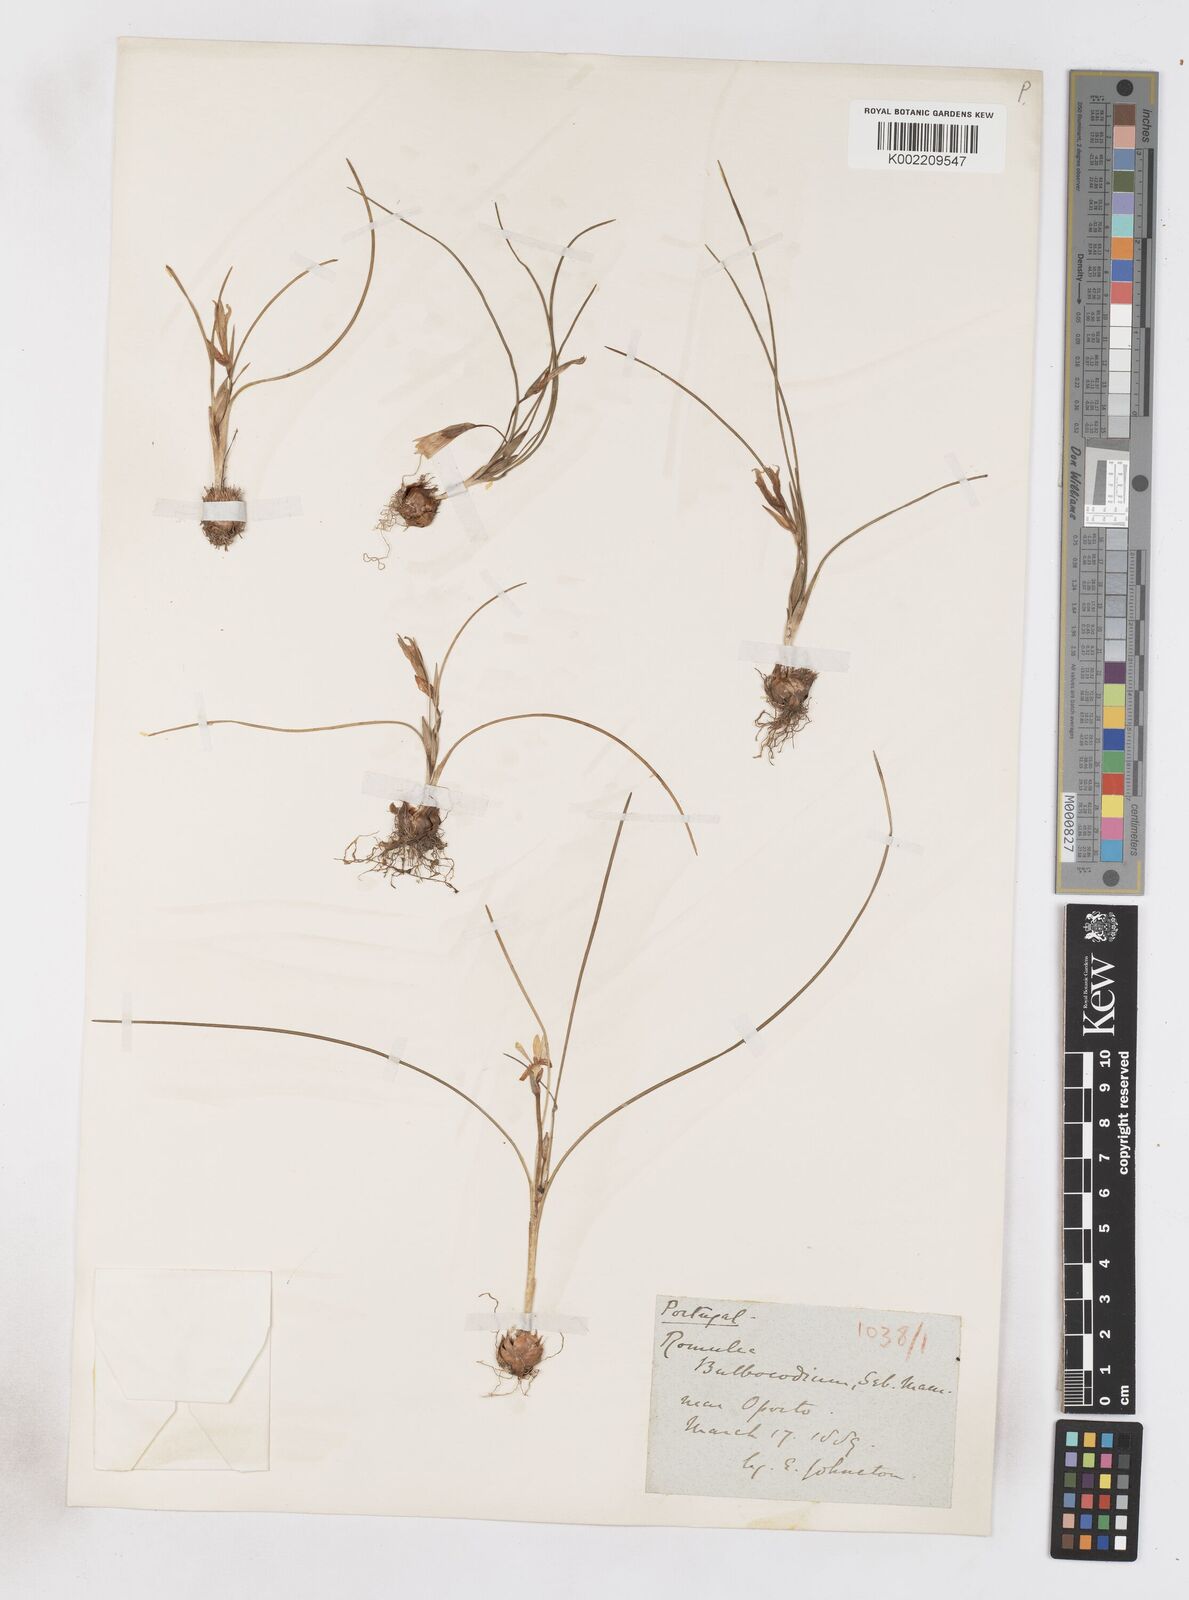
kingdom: Plantae
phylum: Tracheophyta
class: Liliopsida
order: Asparagales
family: Iridaceae
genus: Romulea
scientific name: Romulea bulbocodium
